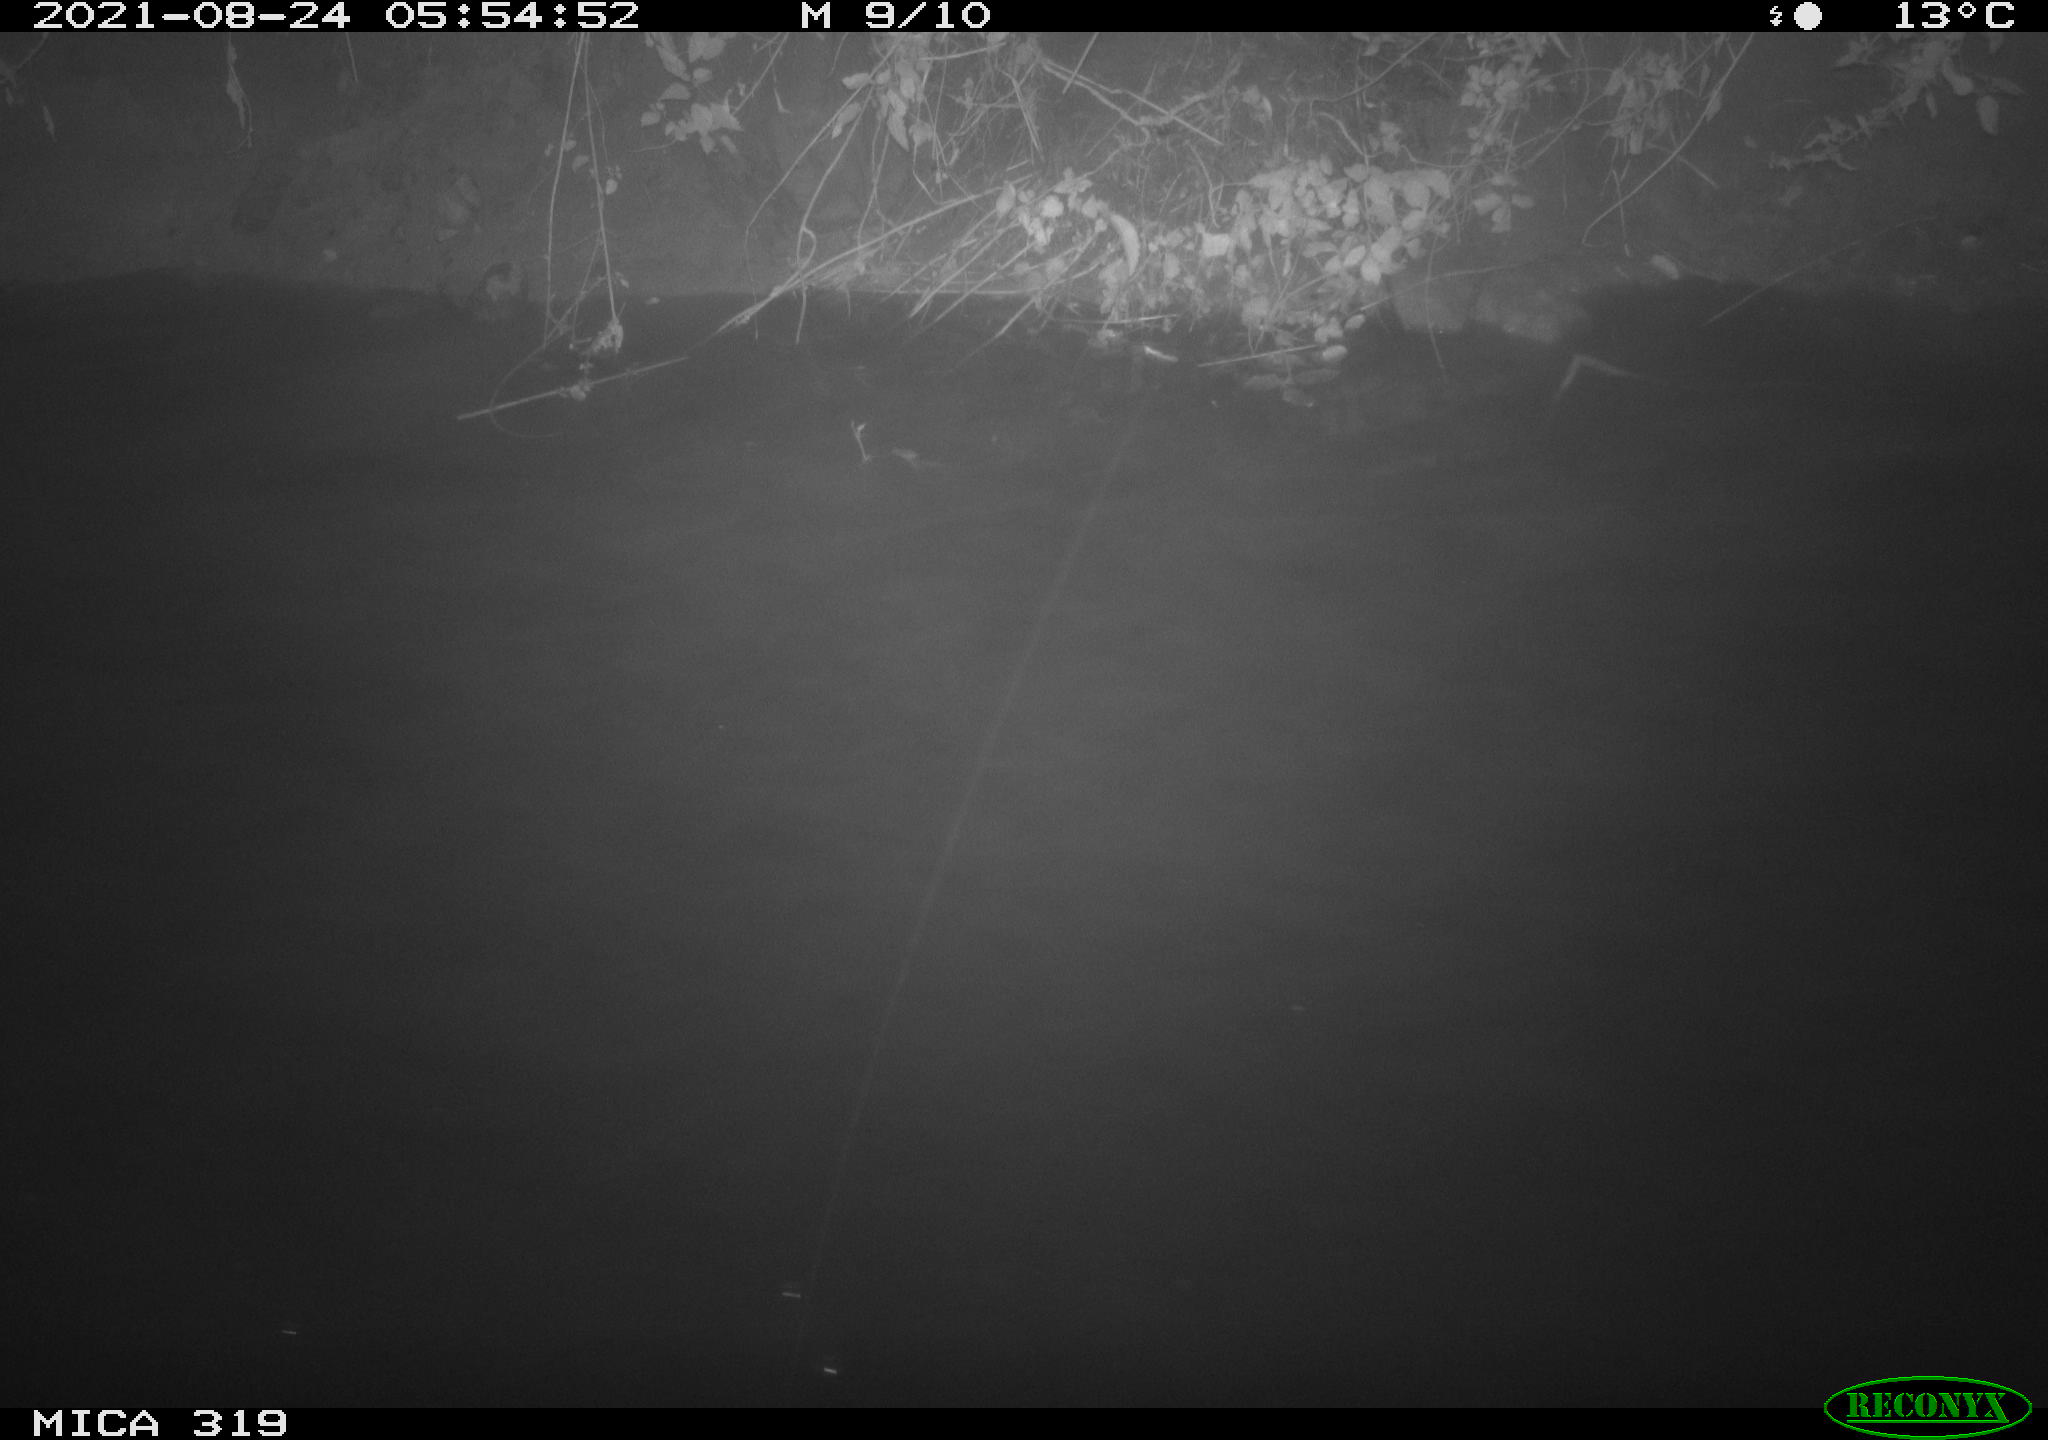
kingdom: Animalia
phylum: Chordata
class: Aves
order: Anseriformes
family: Anatidae
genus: Anas
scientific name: Anas platyrhynchos
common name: Mallard
